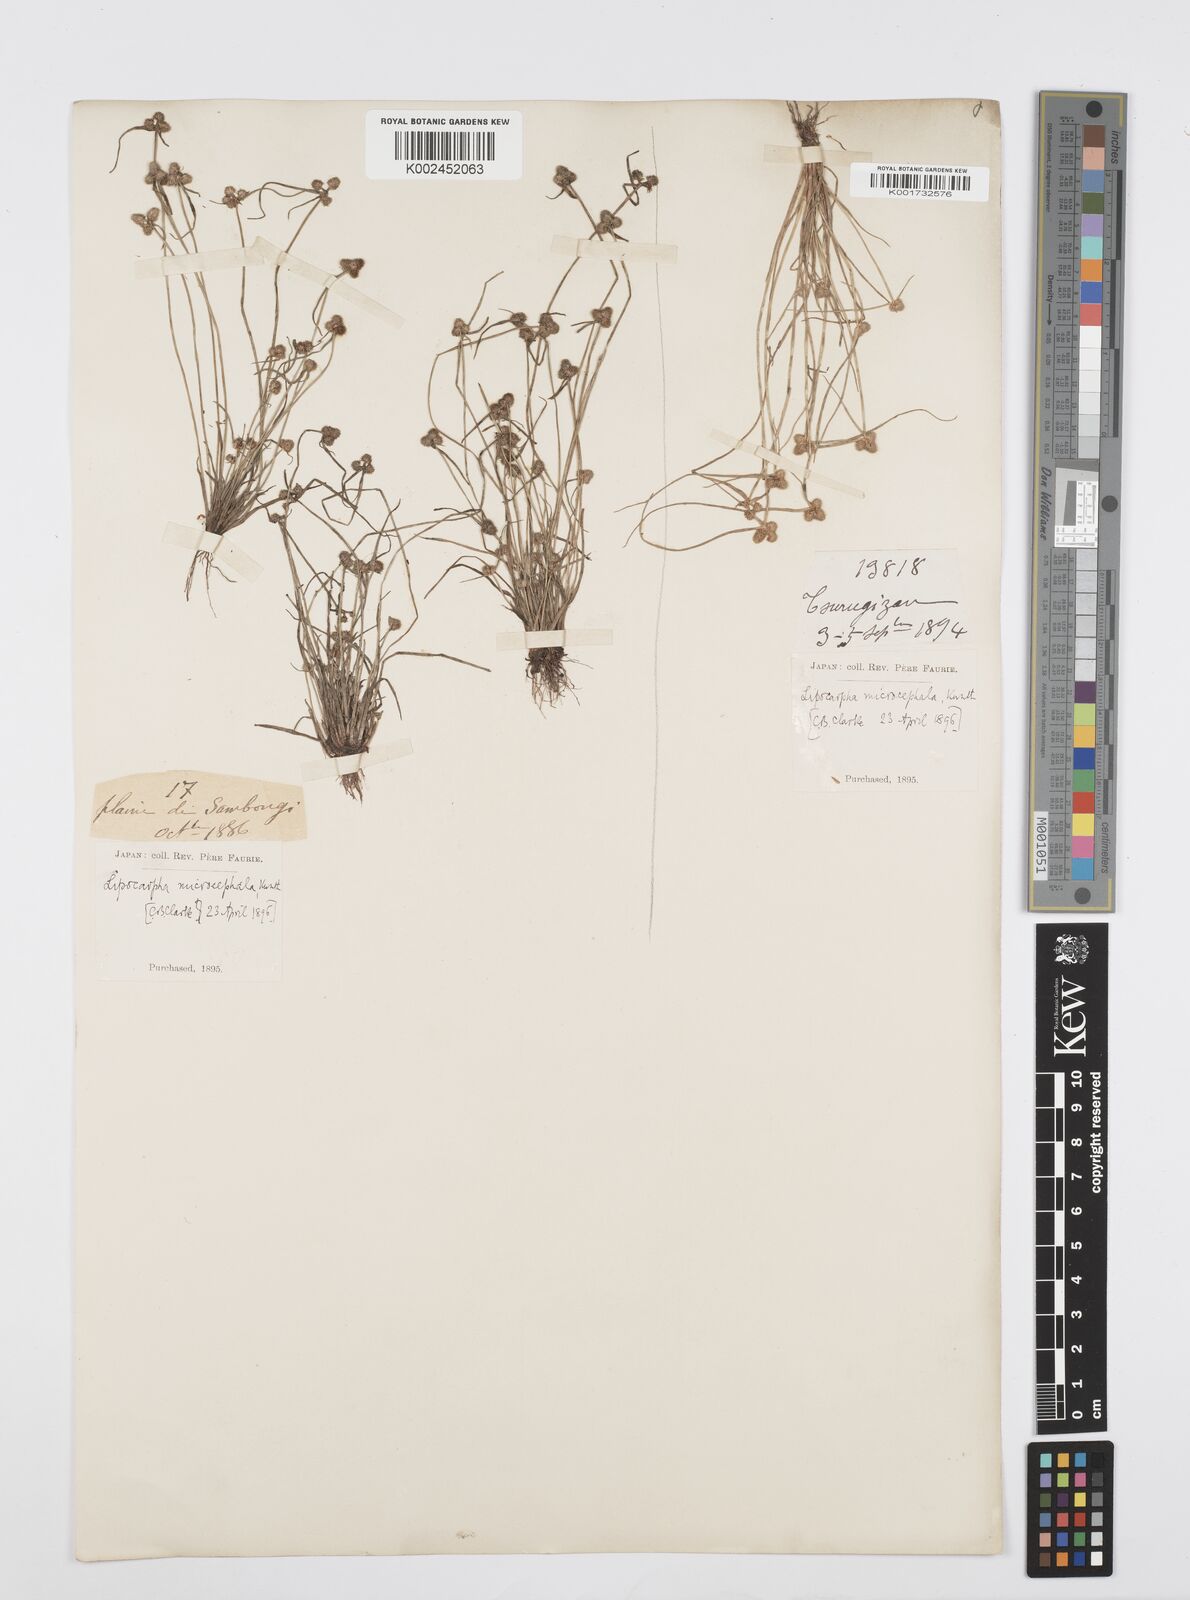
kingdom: Plantae
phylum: Tracheophyta
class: Liliopsida
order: Poales
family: Cyperaceae
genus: Cyperus
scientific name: Cyperus microcephalus
